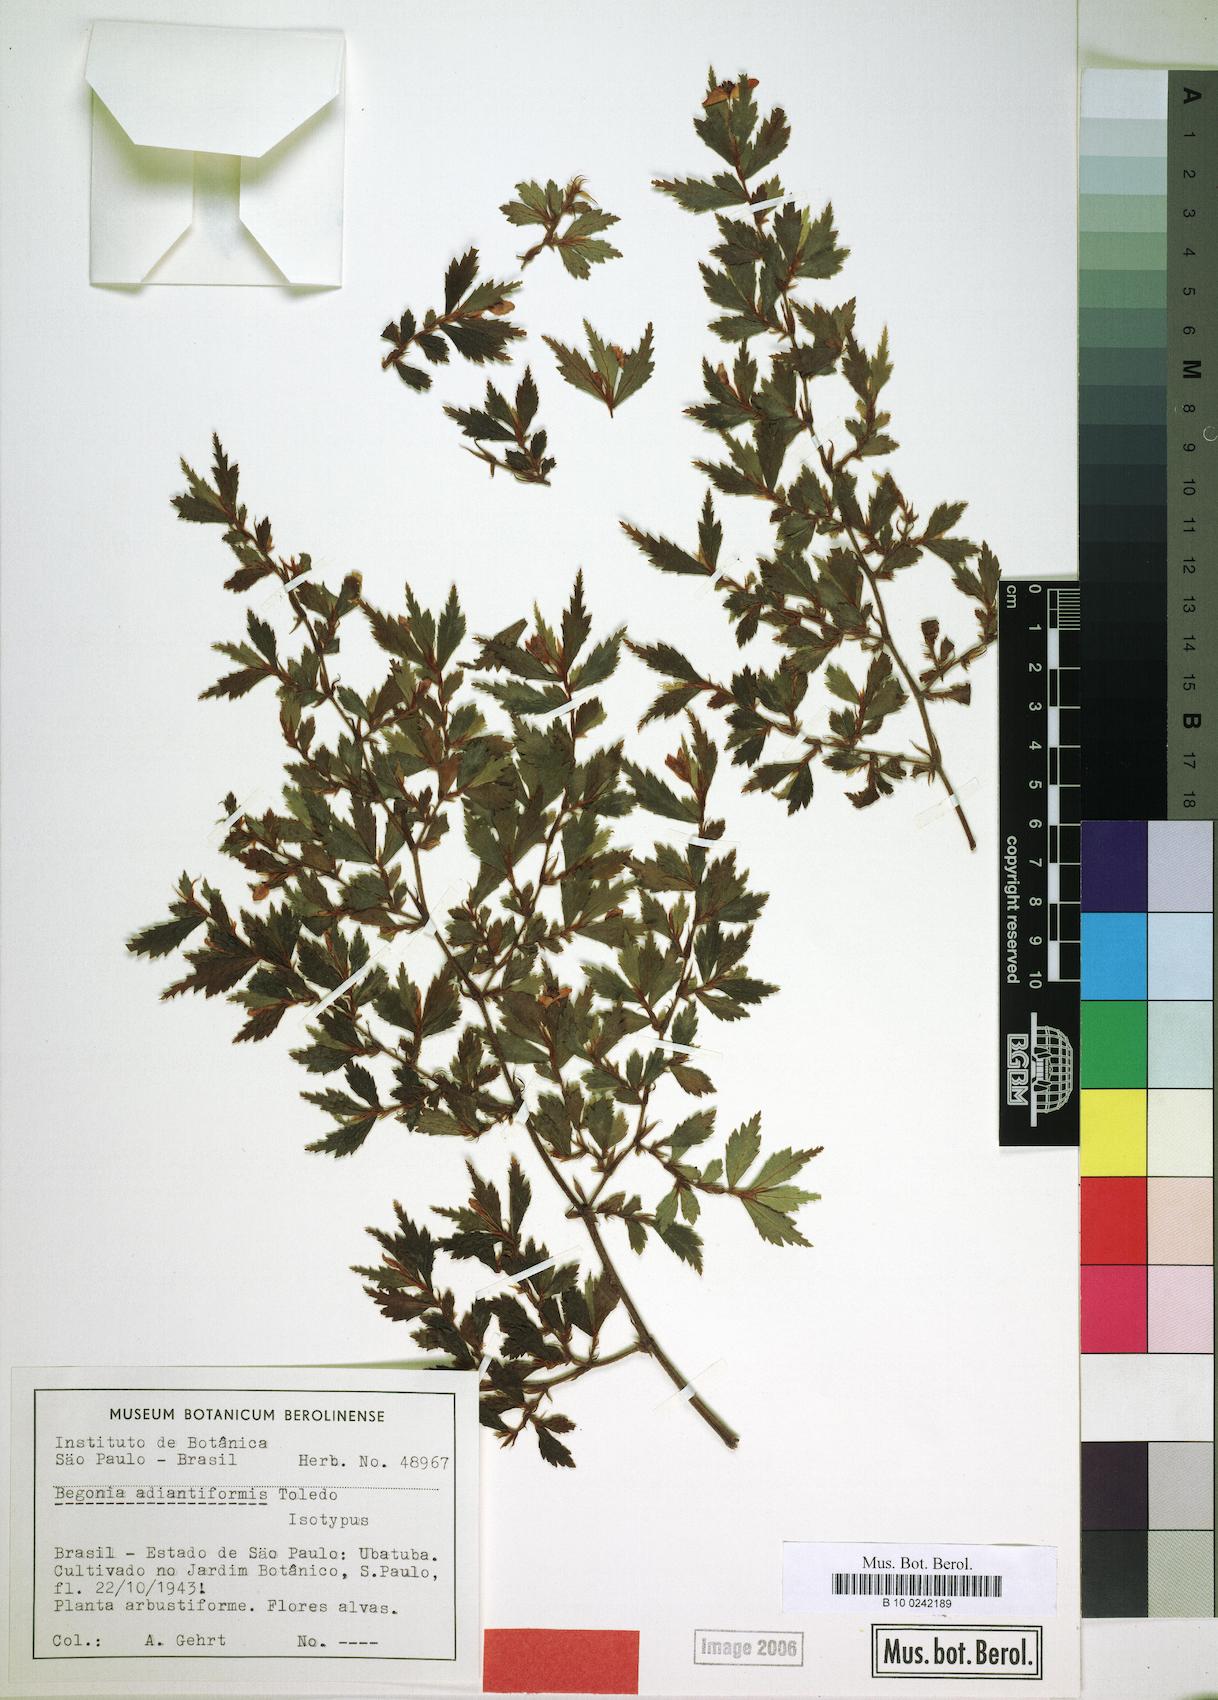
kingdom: Plantae
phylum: Tracheophyta
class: Magnoliopsida
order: Cucurbitales
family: Begoniaceae
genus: Begonia
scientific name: Begonia itatinensis
